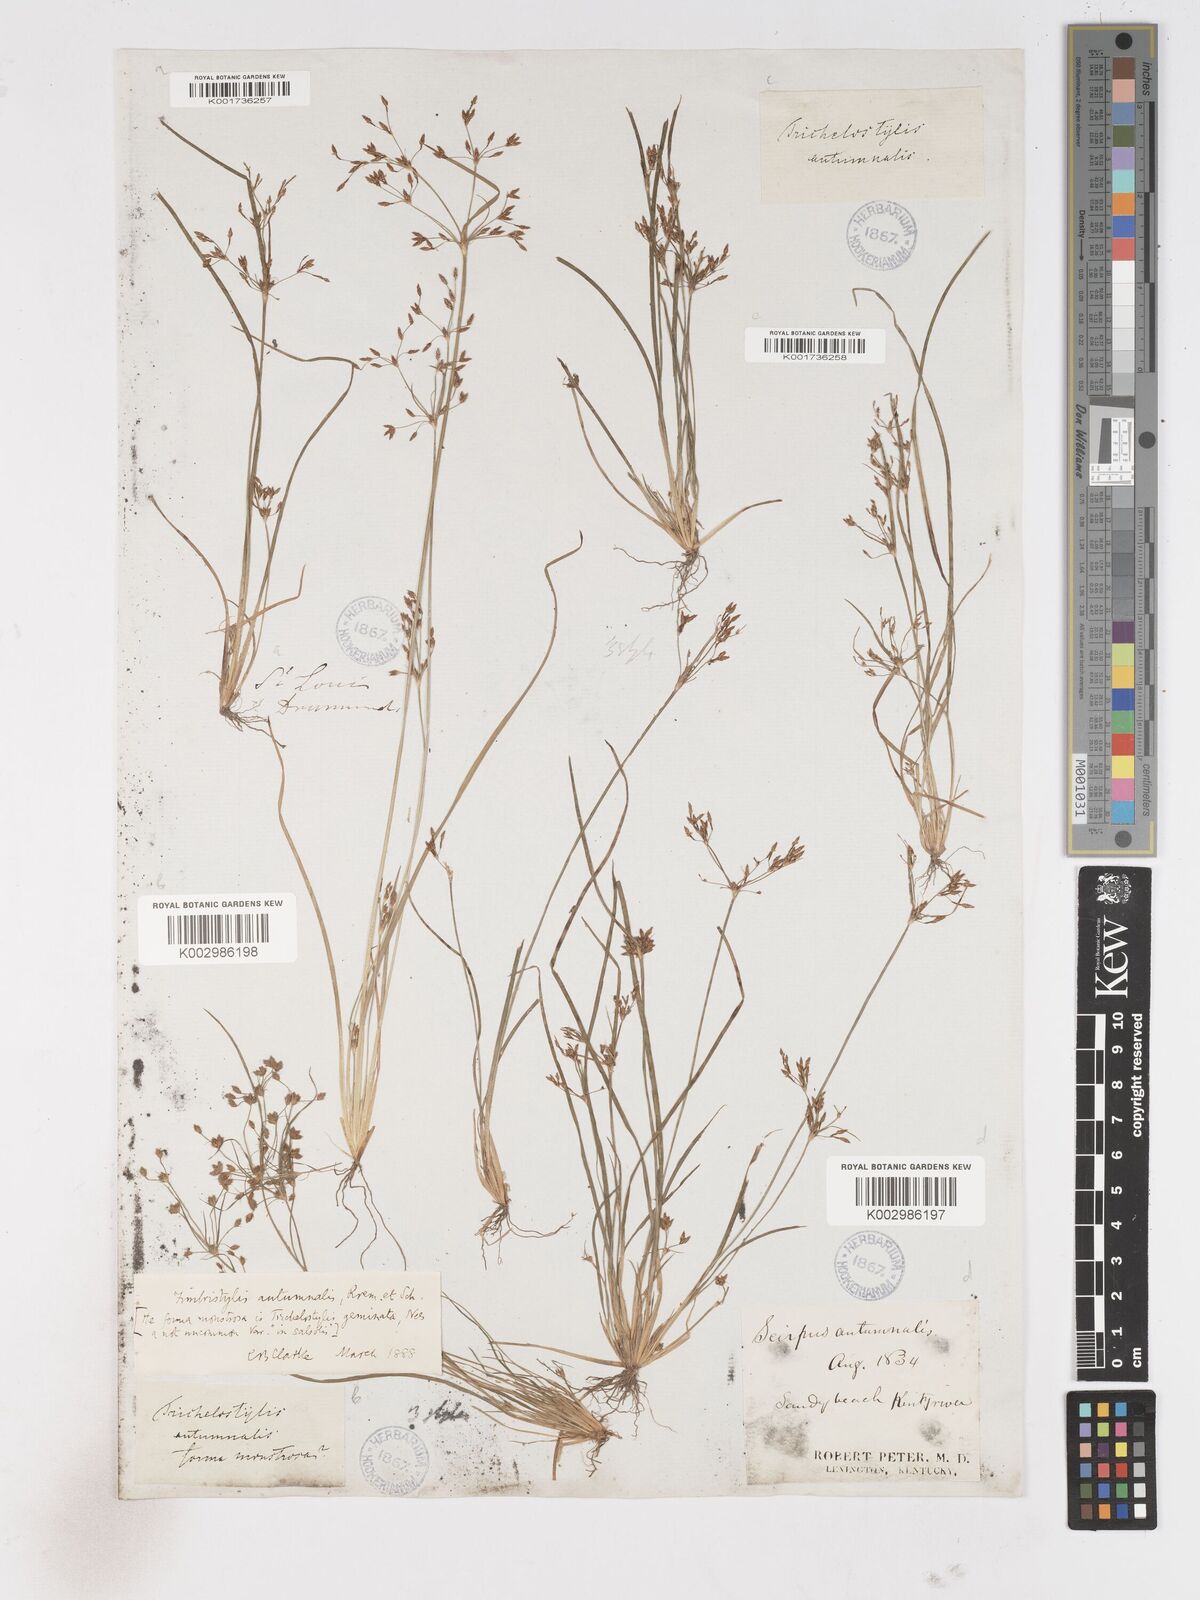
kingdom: Plantae
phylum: Tracheophyta
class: Liliopsida
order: Poales
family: Cyperaceae
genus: Fimbristylis
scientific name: Fimbristylis autumnalis
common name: Slender fimbristylis
